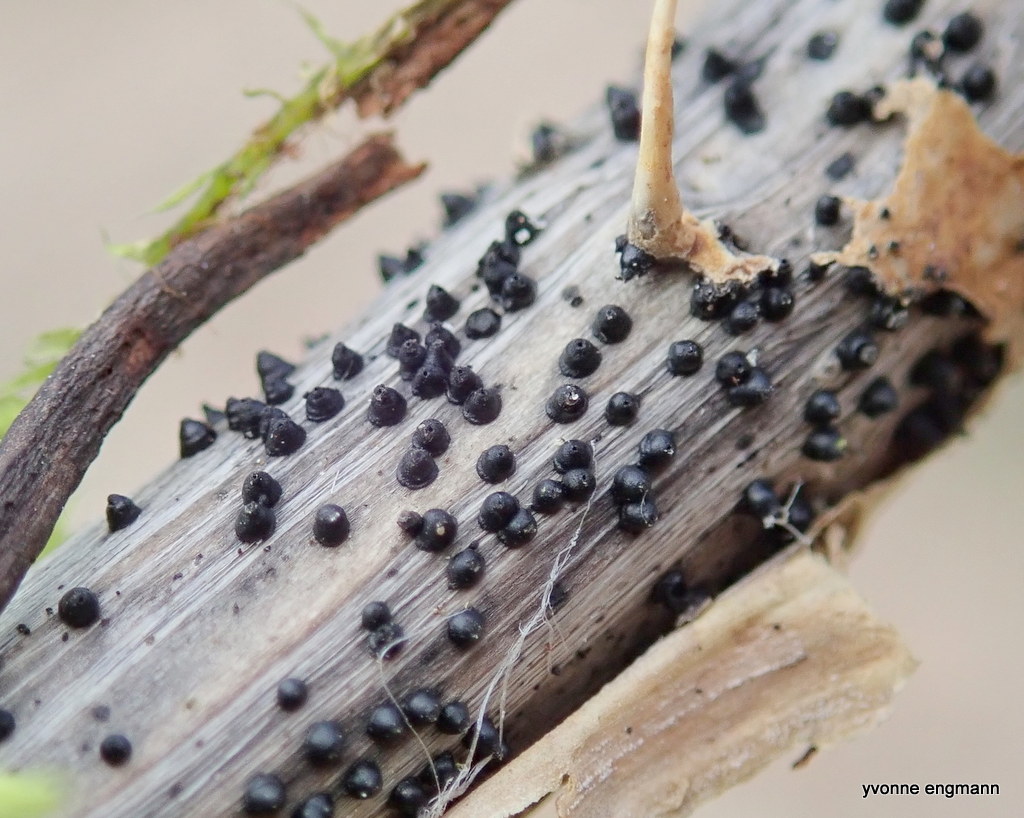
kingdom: Fungi
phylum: Ascomycota
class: Dothideomycetes
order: Pleosporales
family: Leptosphaeriaceae
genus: Leptosphaeria
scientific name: Leptosphaeria
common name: kulkegle
